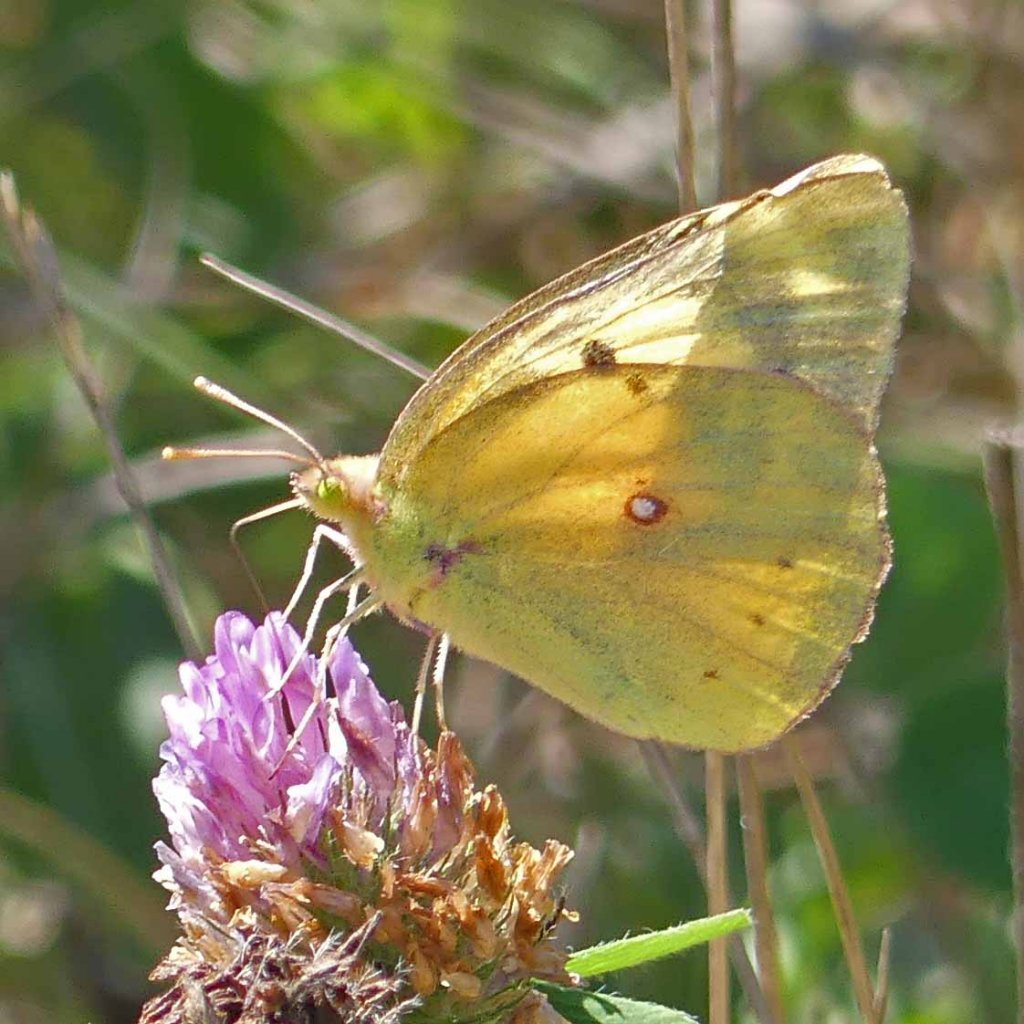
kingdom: Animalia
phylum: Arthropoda
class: Insecta
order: Lepidoptera
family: Pieridae
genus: Colias
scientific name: Colias eurytheme
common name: Orange Sulphur
